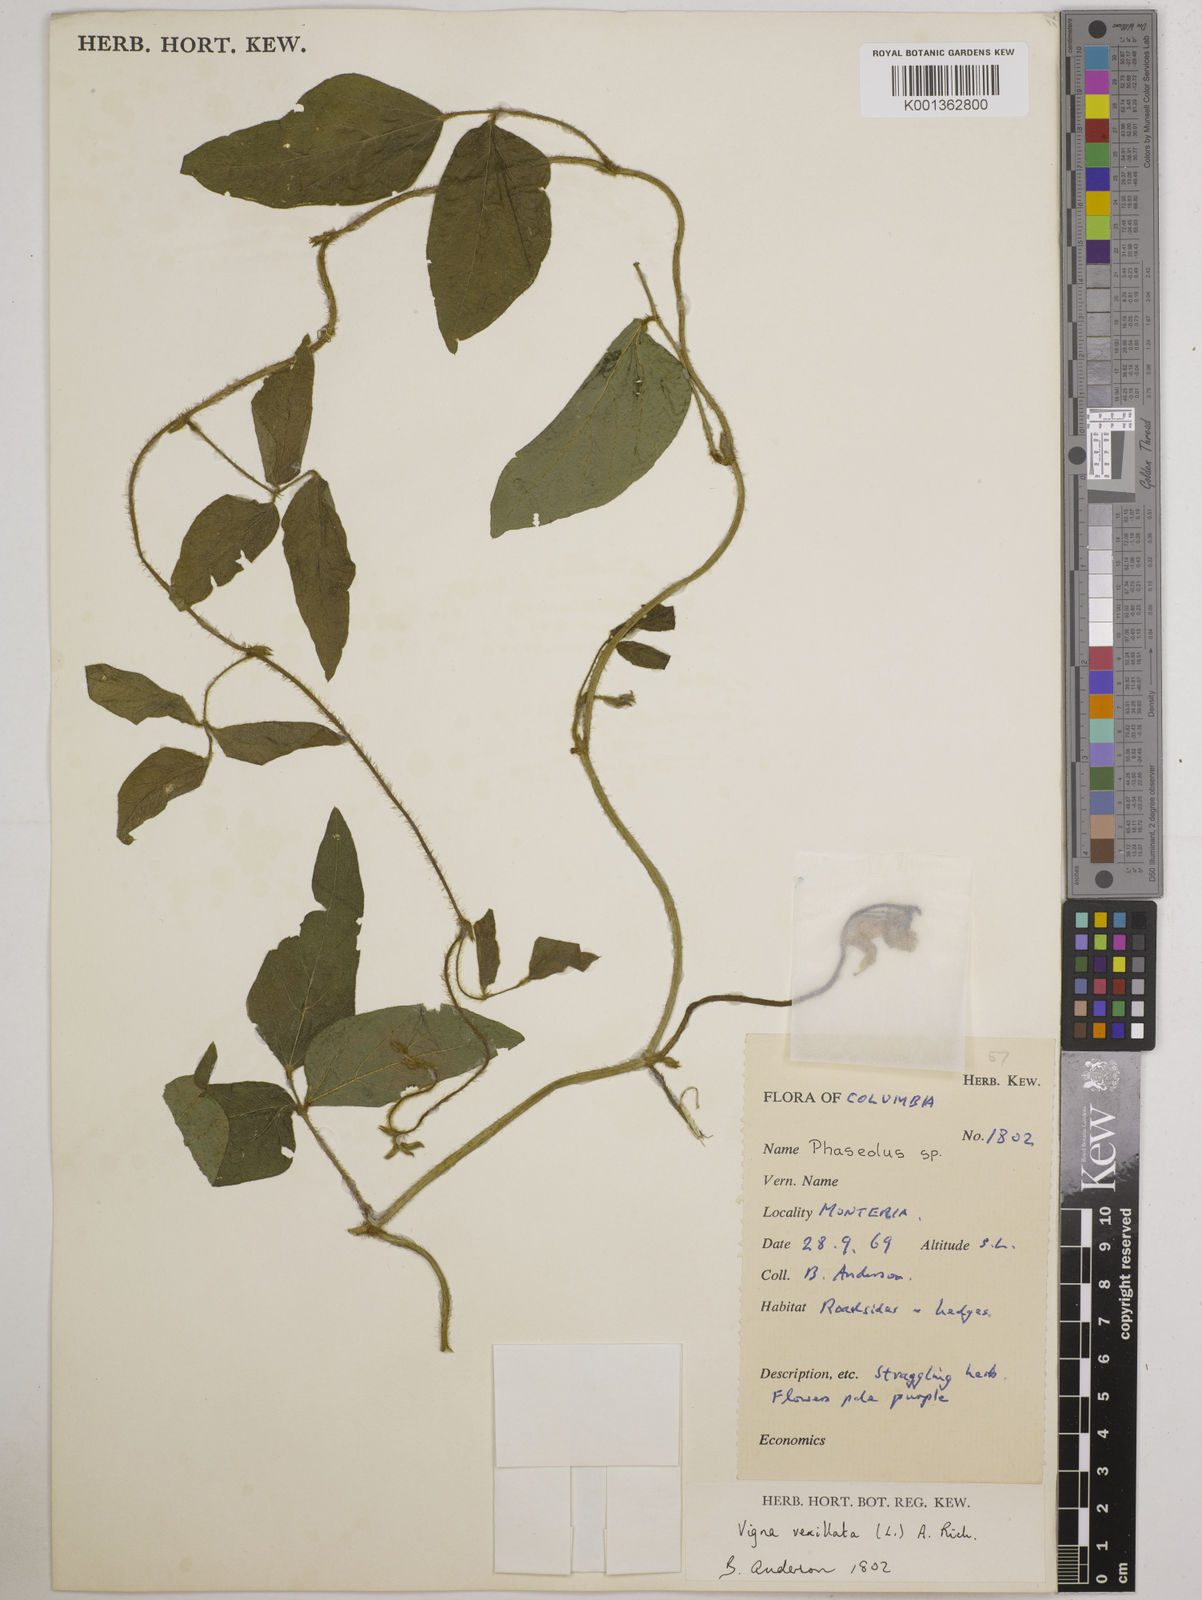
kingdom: Plantae
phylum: Tracheophyta
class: Magnoliopsida
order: Fabales
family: Fabaceae
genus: Vigna
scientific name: Vigna vexillata
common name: Zombi pea
